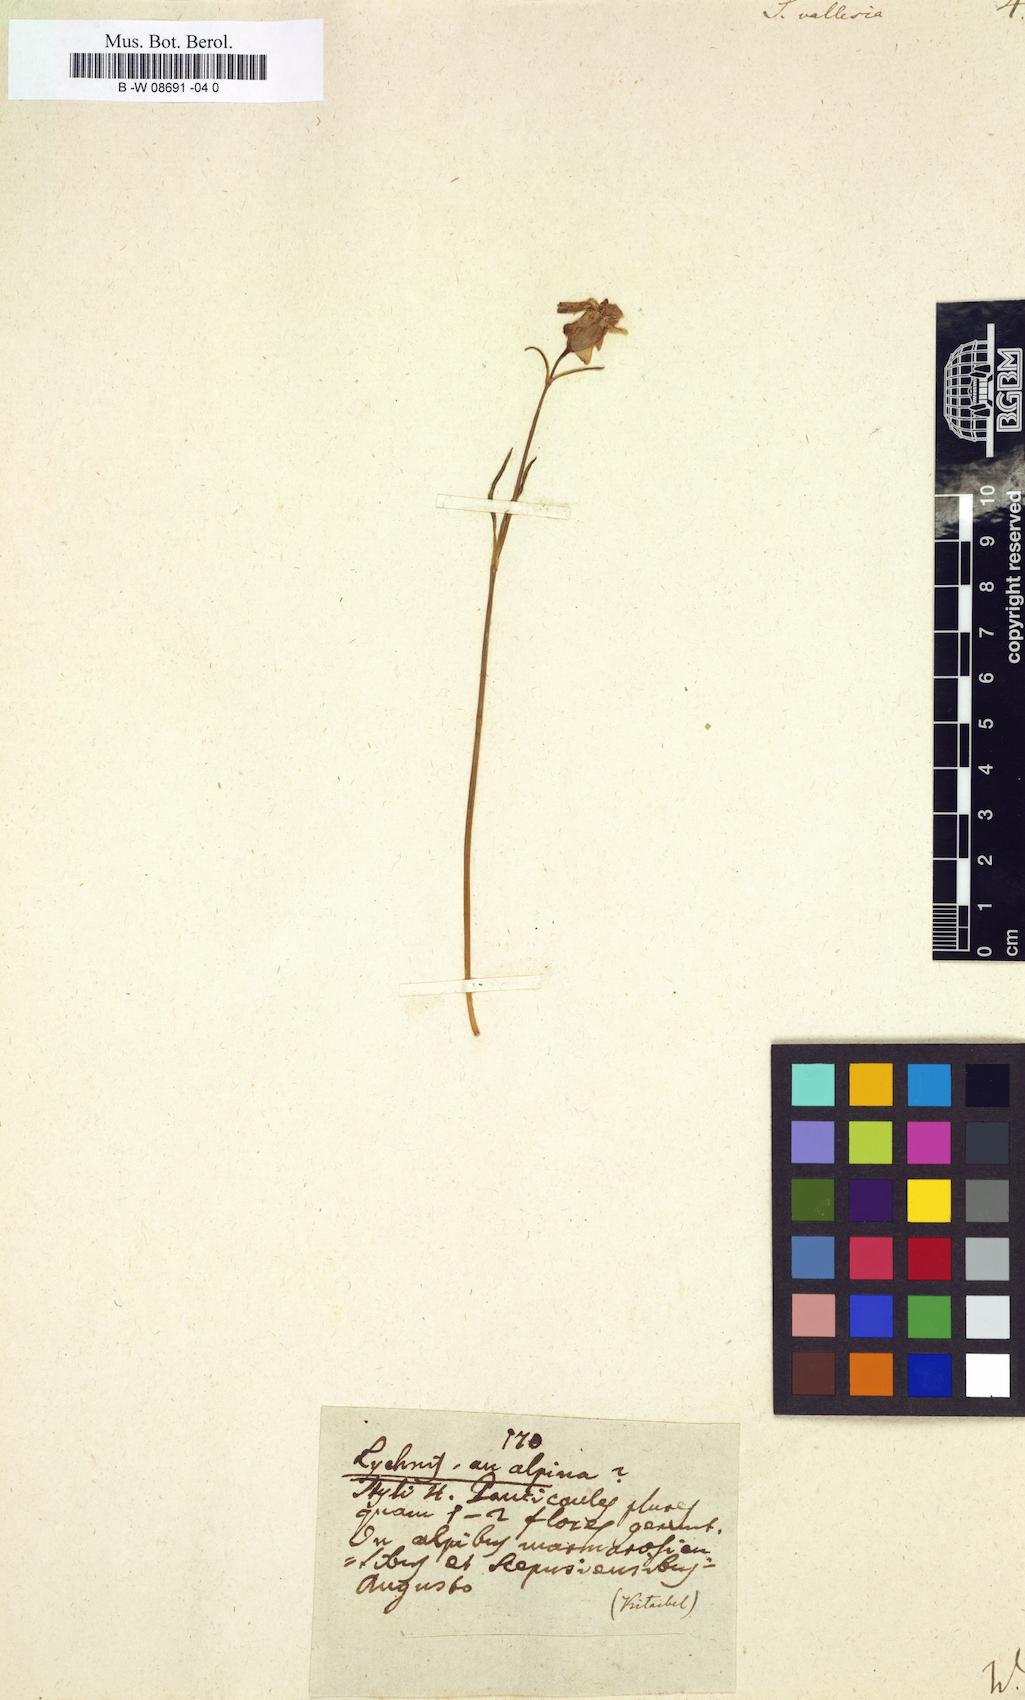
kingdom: Plantae
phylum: Tracheophyta
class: Magnoliopsida
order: Caryophyllales
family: Caryophyllaceae
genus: Silene
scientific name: Silene vallesia
